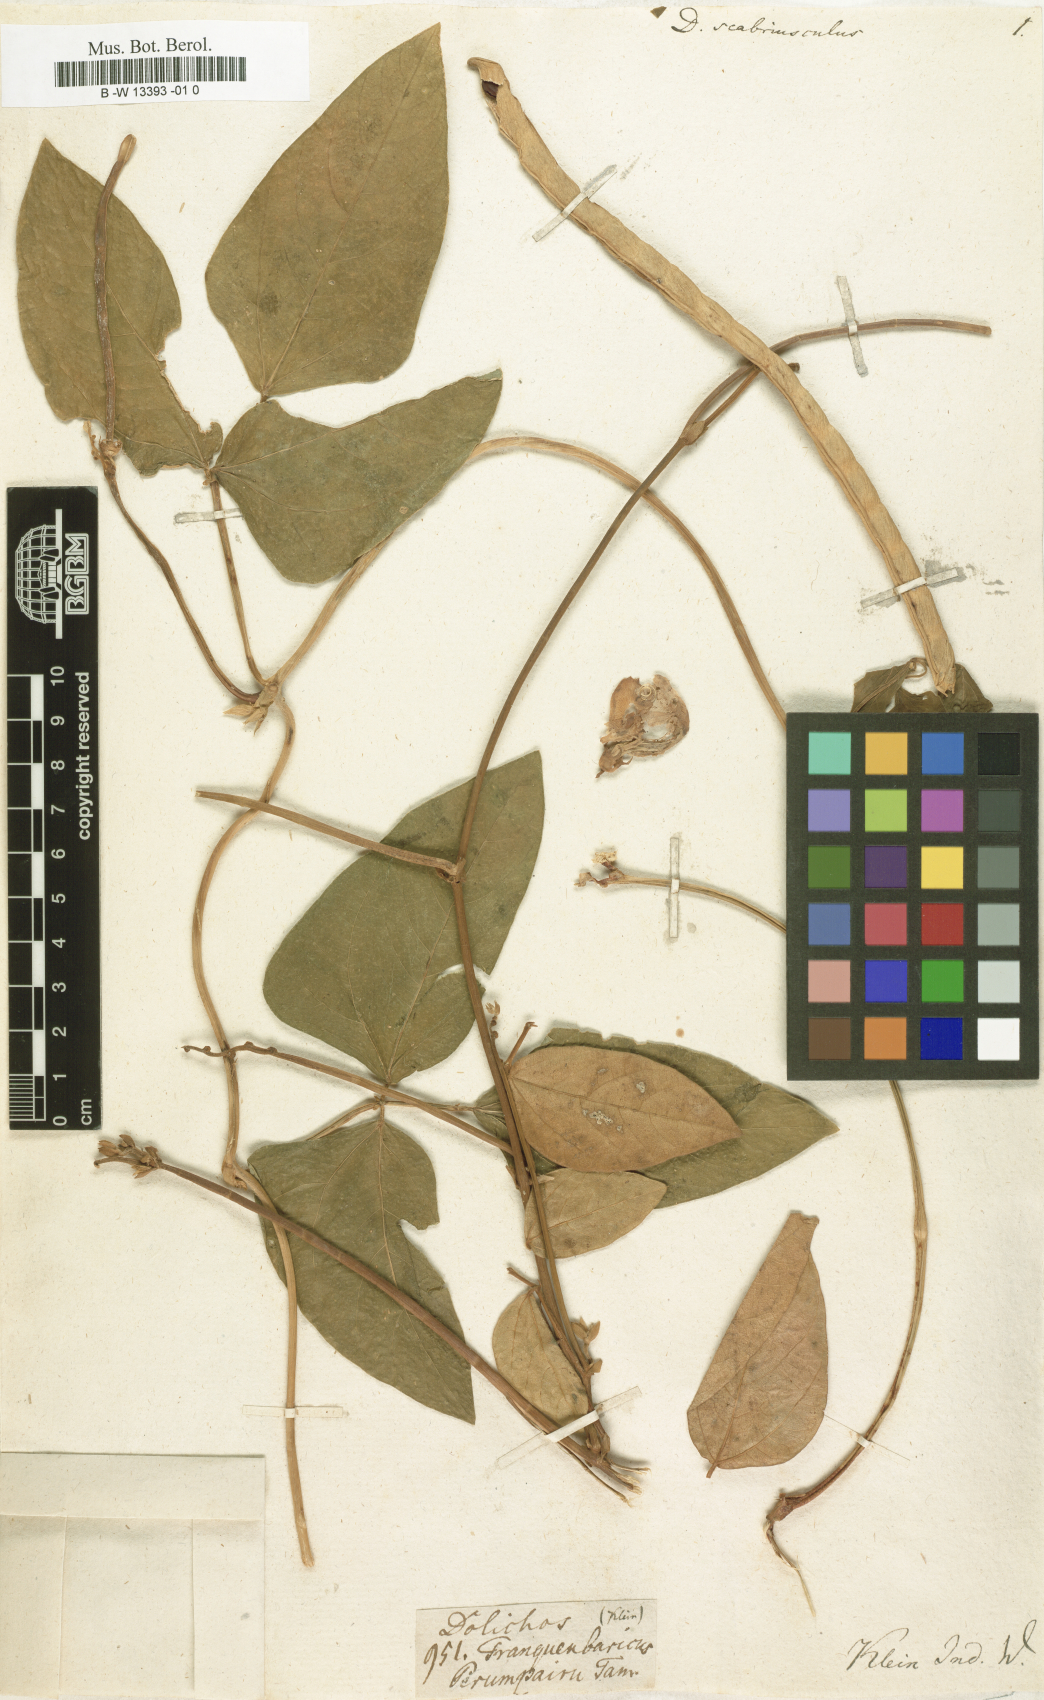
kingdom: Plantae
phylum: Tracheophyta
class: Magnoliopsida
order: Fabales
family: Fabaceae
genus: Dolichos
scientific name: Dolichos scabriusculus
